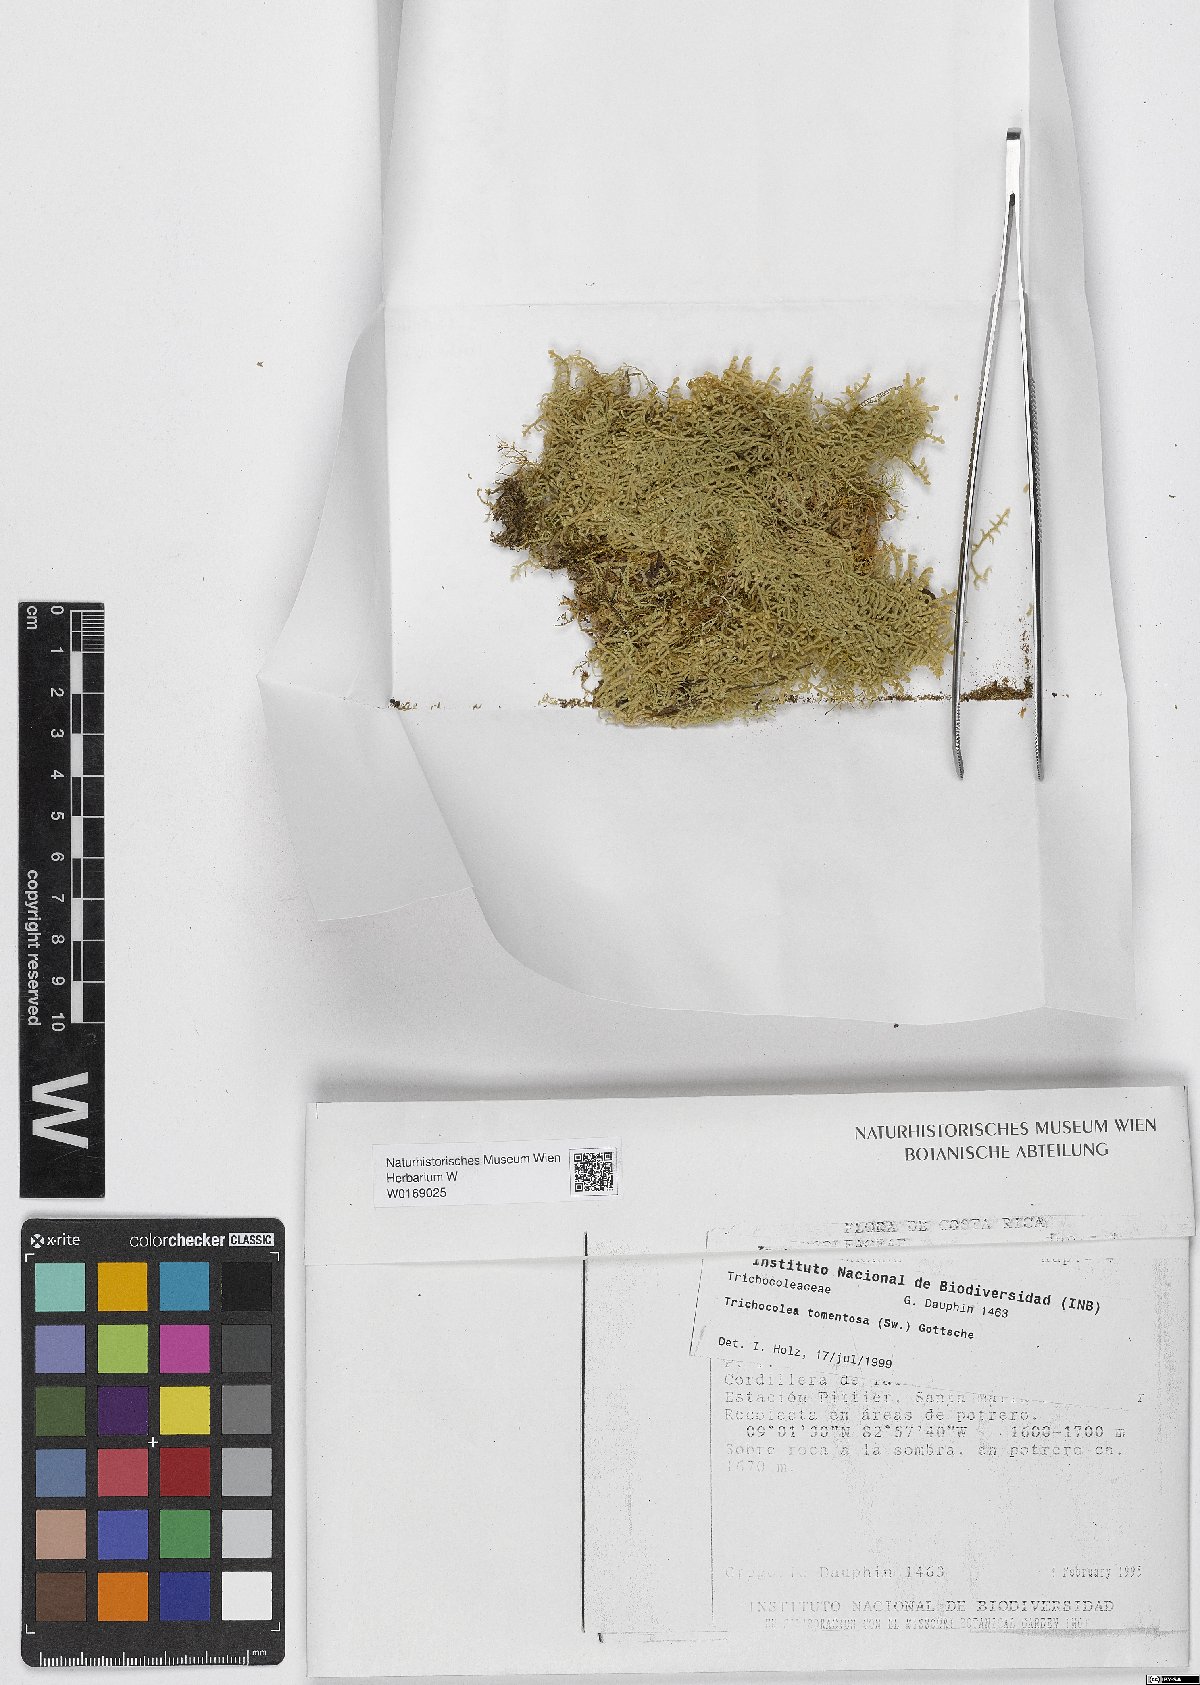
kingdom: Plantae
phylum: Marchantiophyta
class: Jungermanniopsida
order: Jungermanniales
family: Trichocoleaceae
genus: Trichocolea
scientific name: Trichocolea
